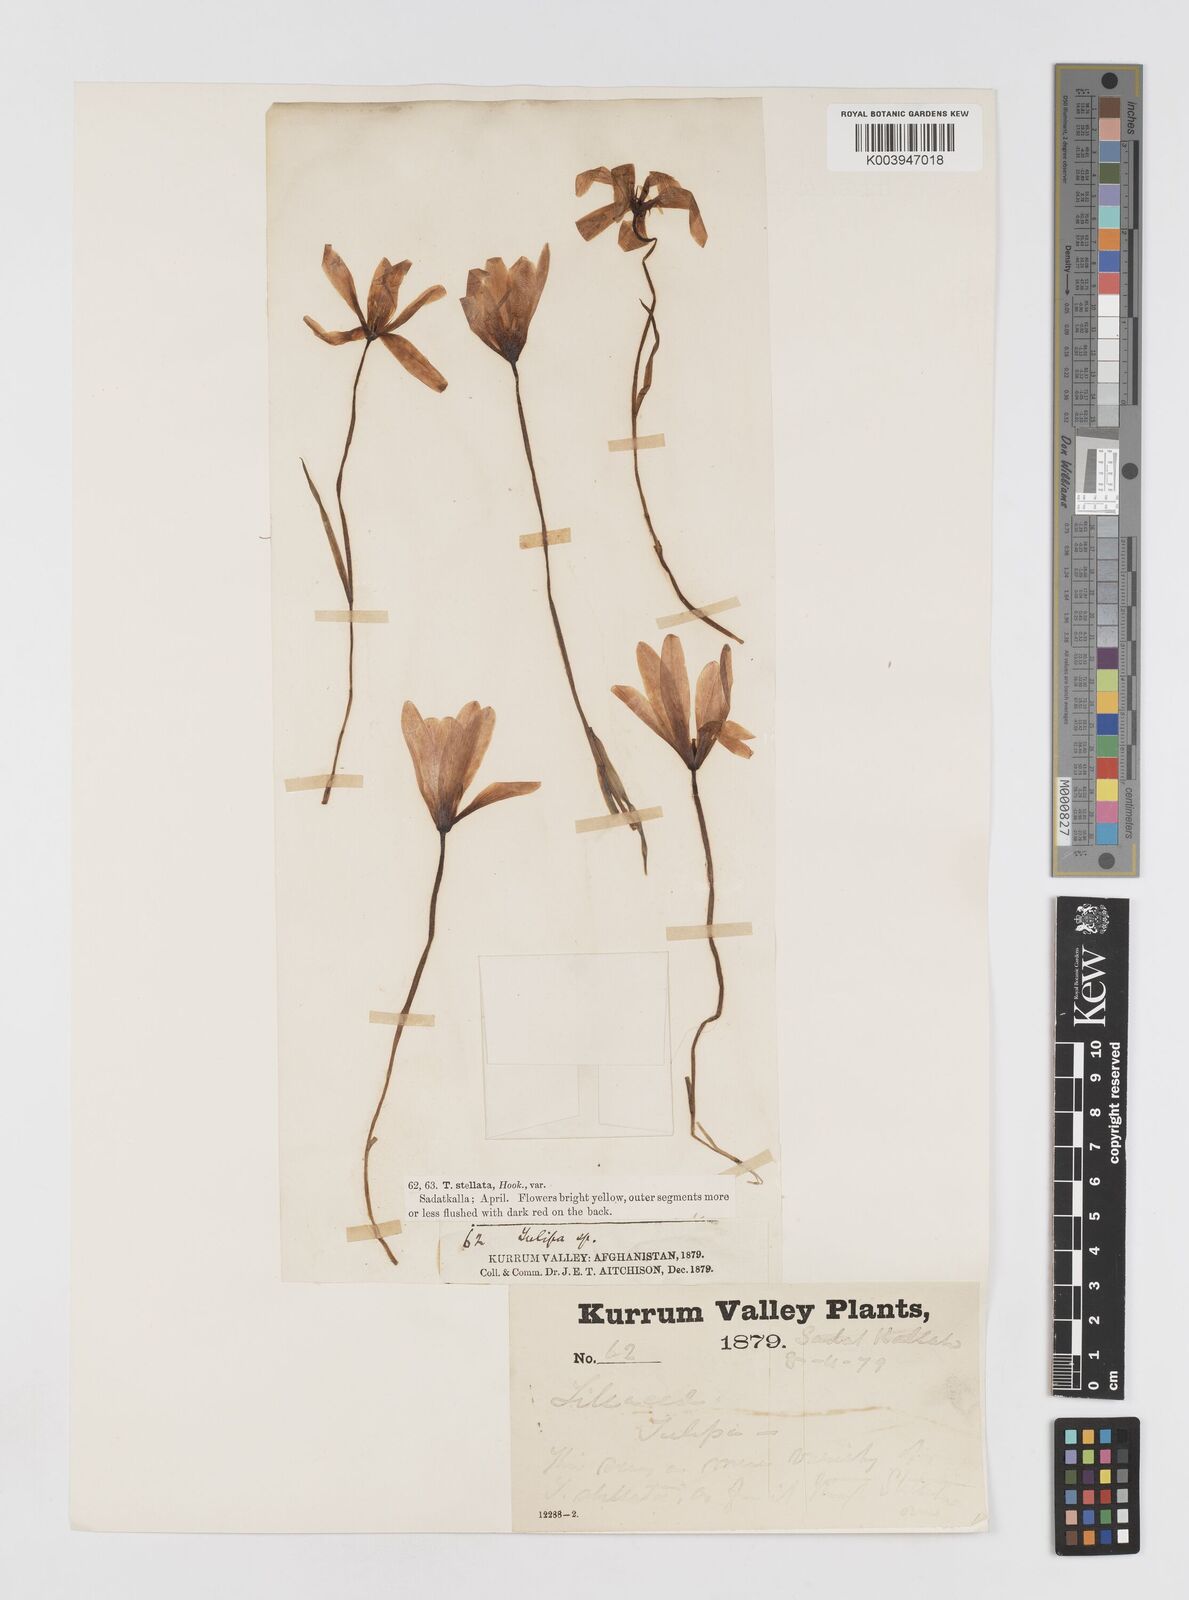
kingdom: Plantae
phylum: Tracheophyta
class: Liliopsida
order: Liliales
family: Liliaceae
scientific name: Liliaceae
